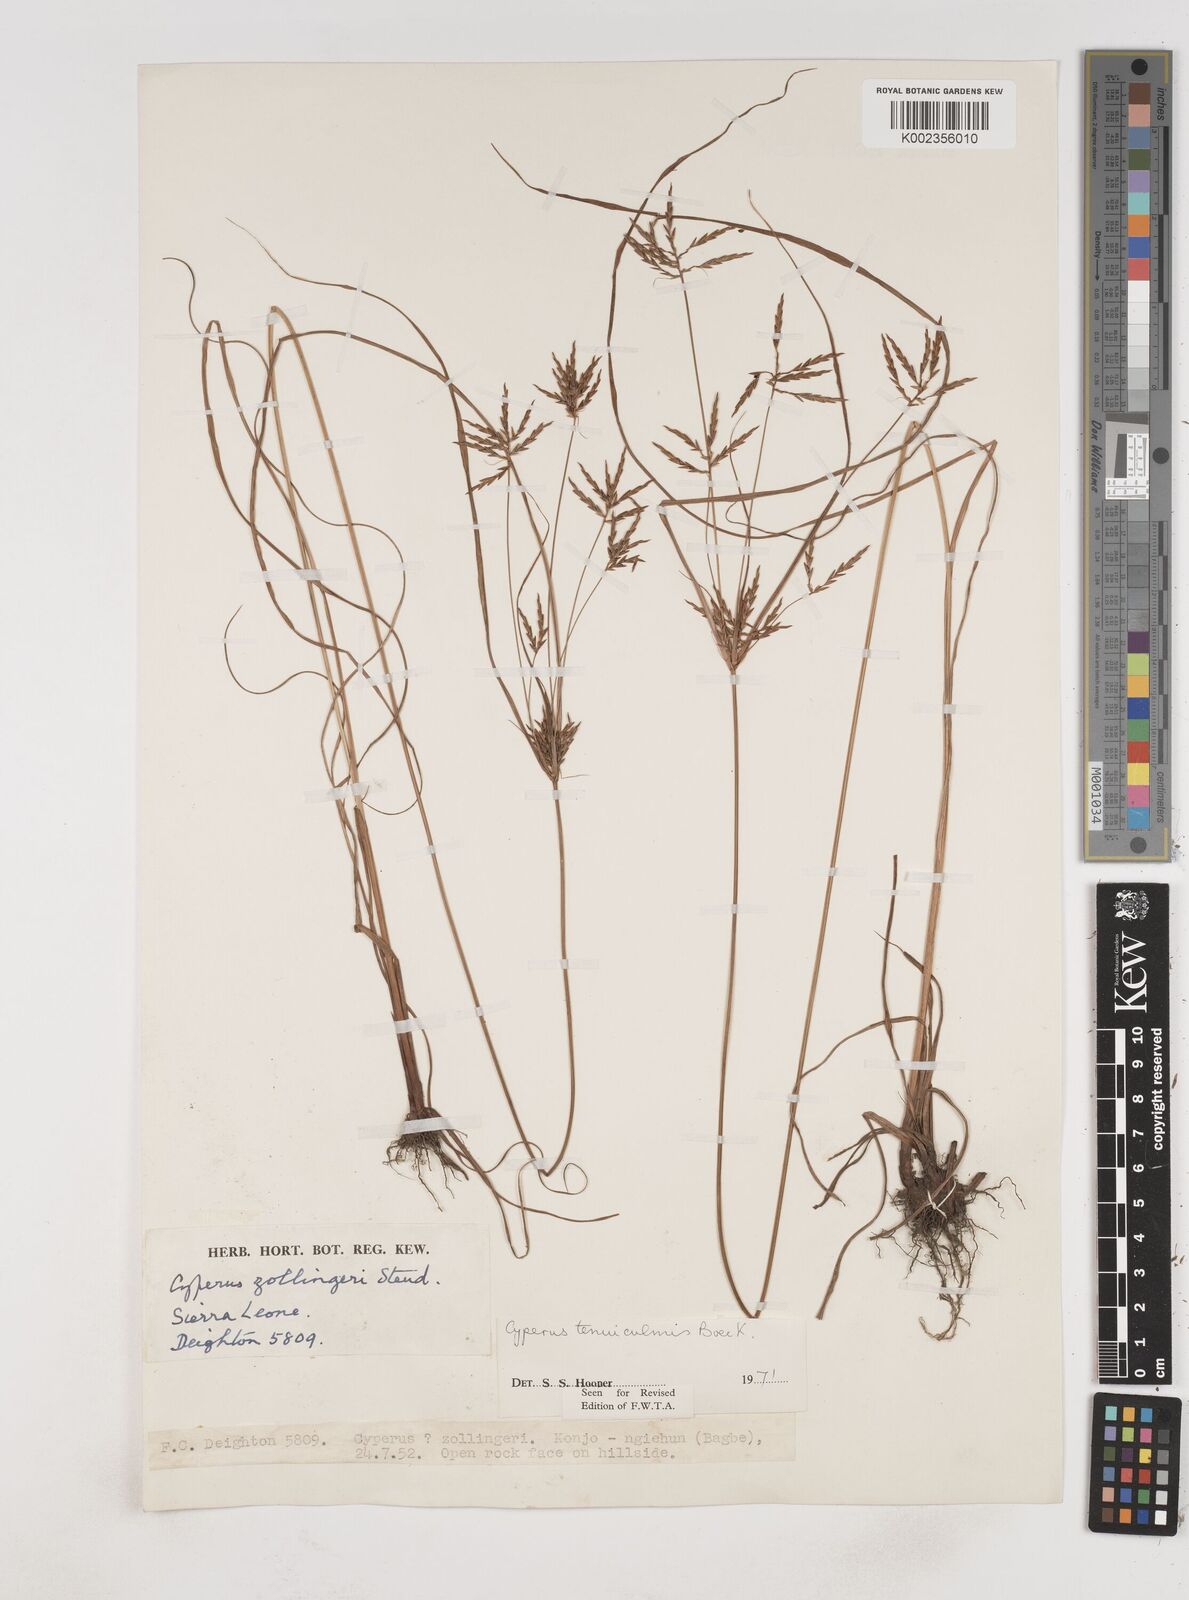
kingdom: Plantae
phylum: Tracheophyta
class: Liliopsida
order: Poales
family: Cyperaceae
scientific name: Cyperaceae
